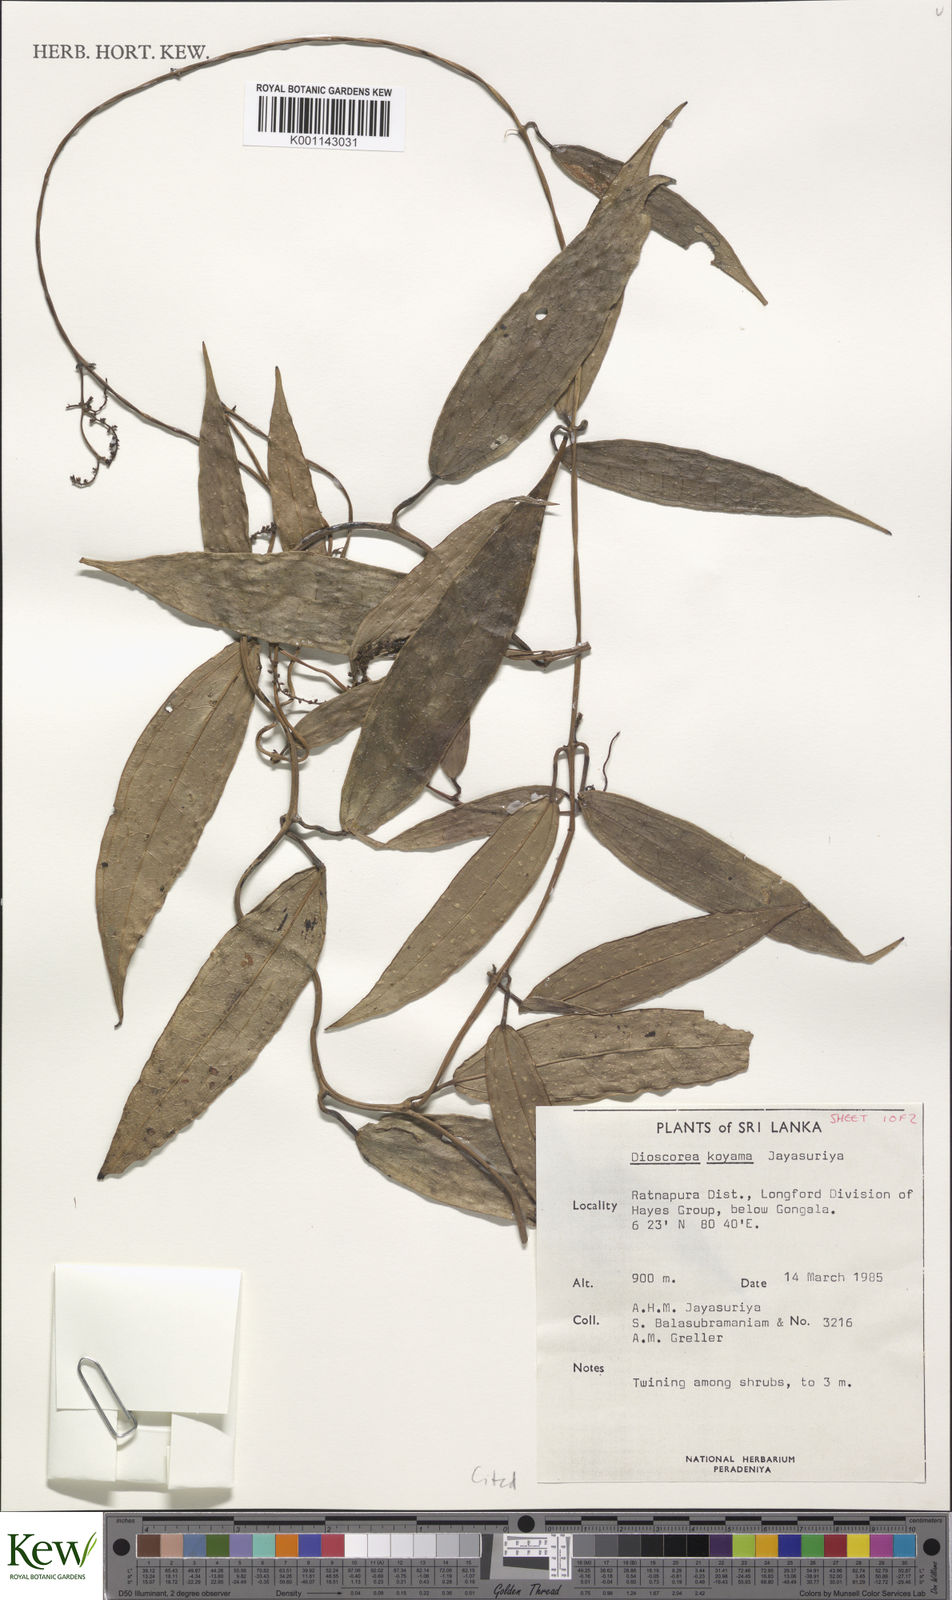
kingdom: Plantae
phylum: Tracheophyta
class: Liliopsida
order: Dioscoreales
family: Dioscoreaceae
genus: Dioscorea
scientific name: Dioscorea koyamae
